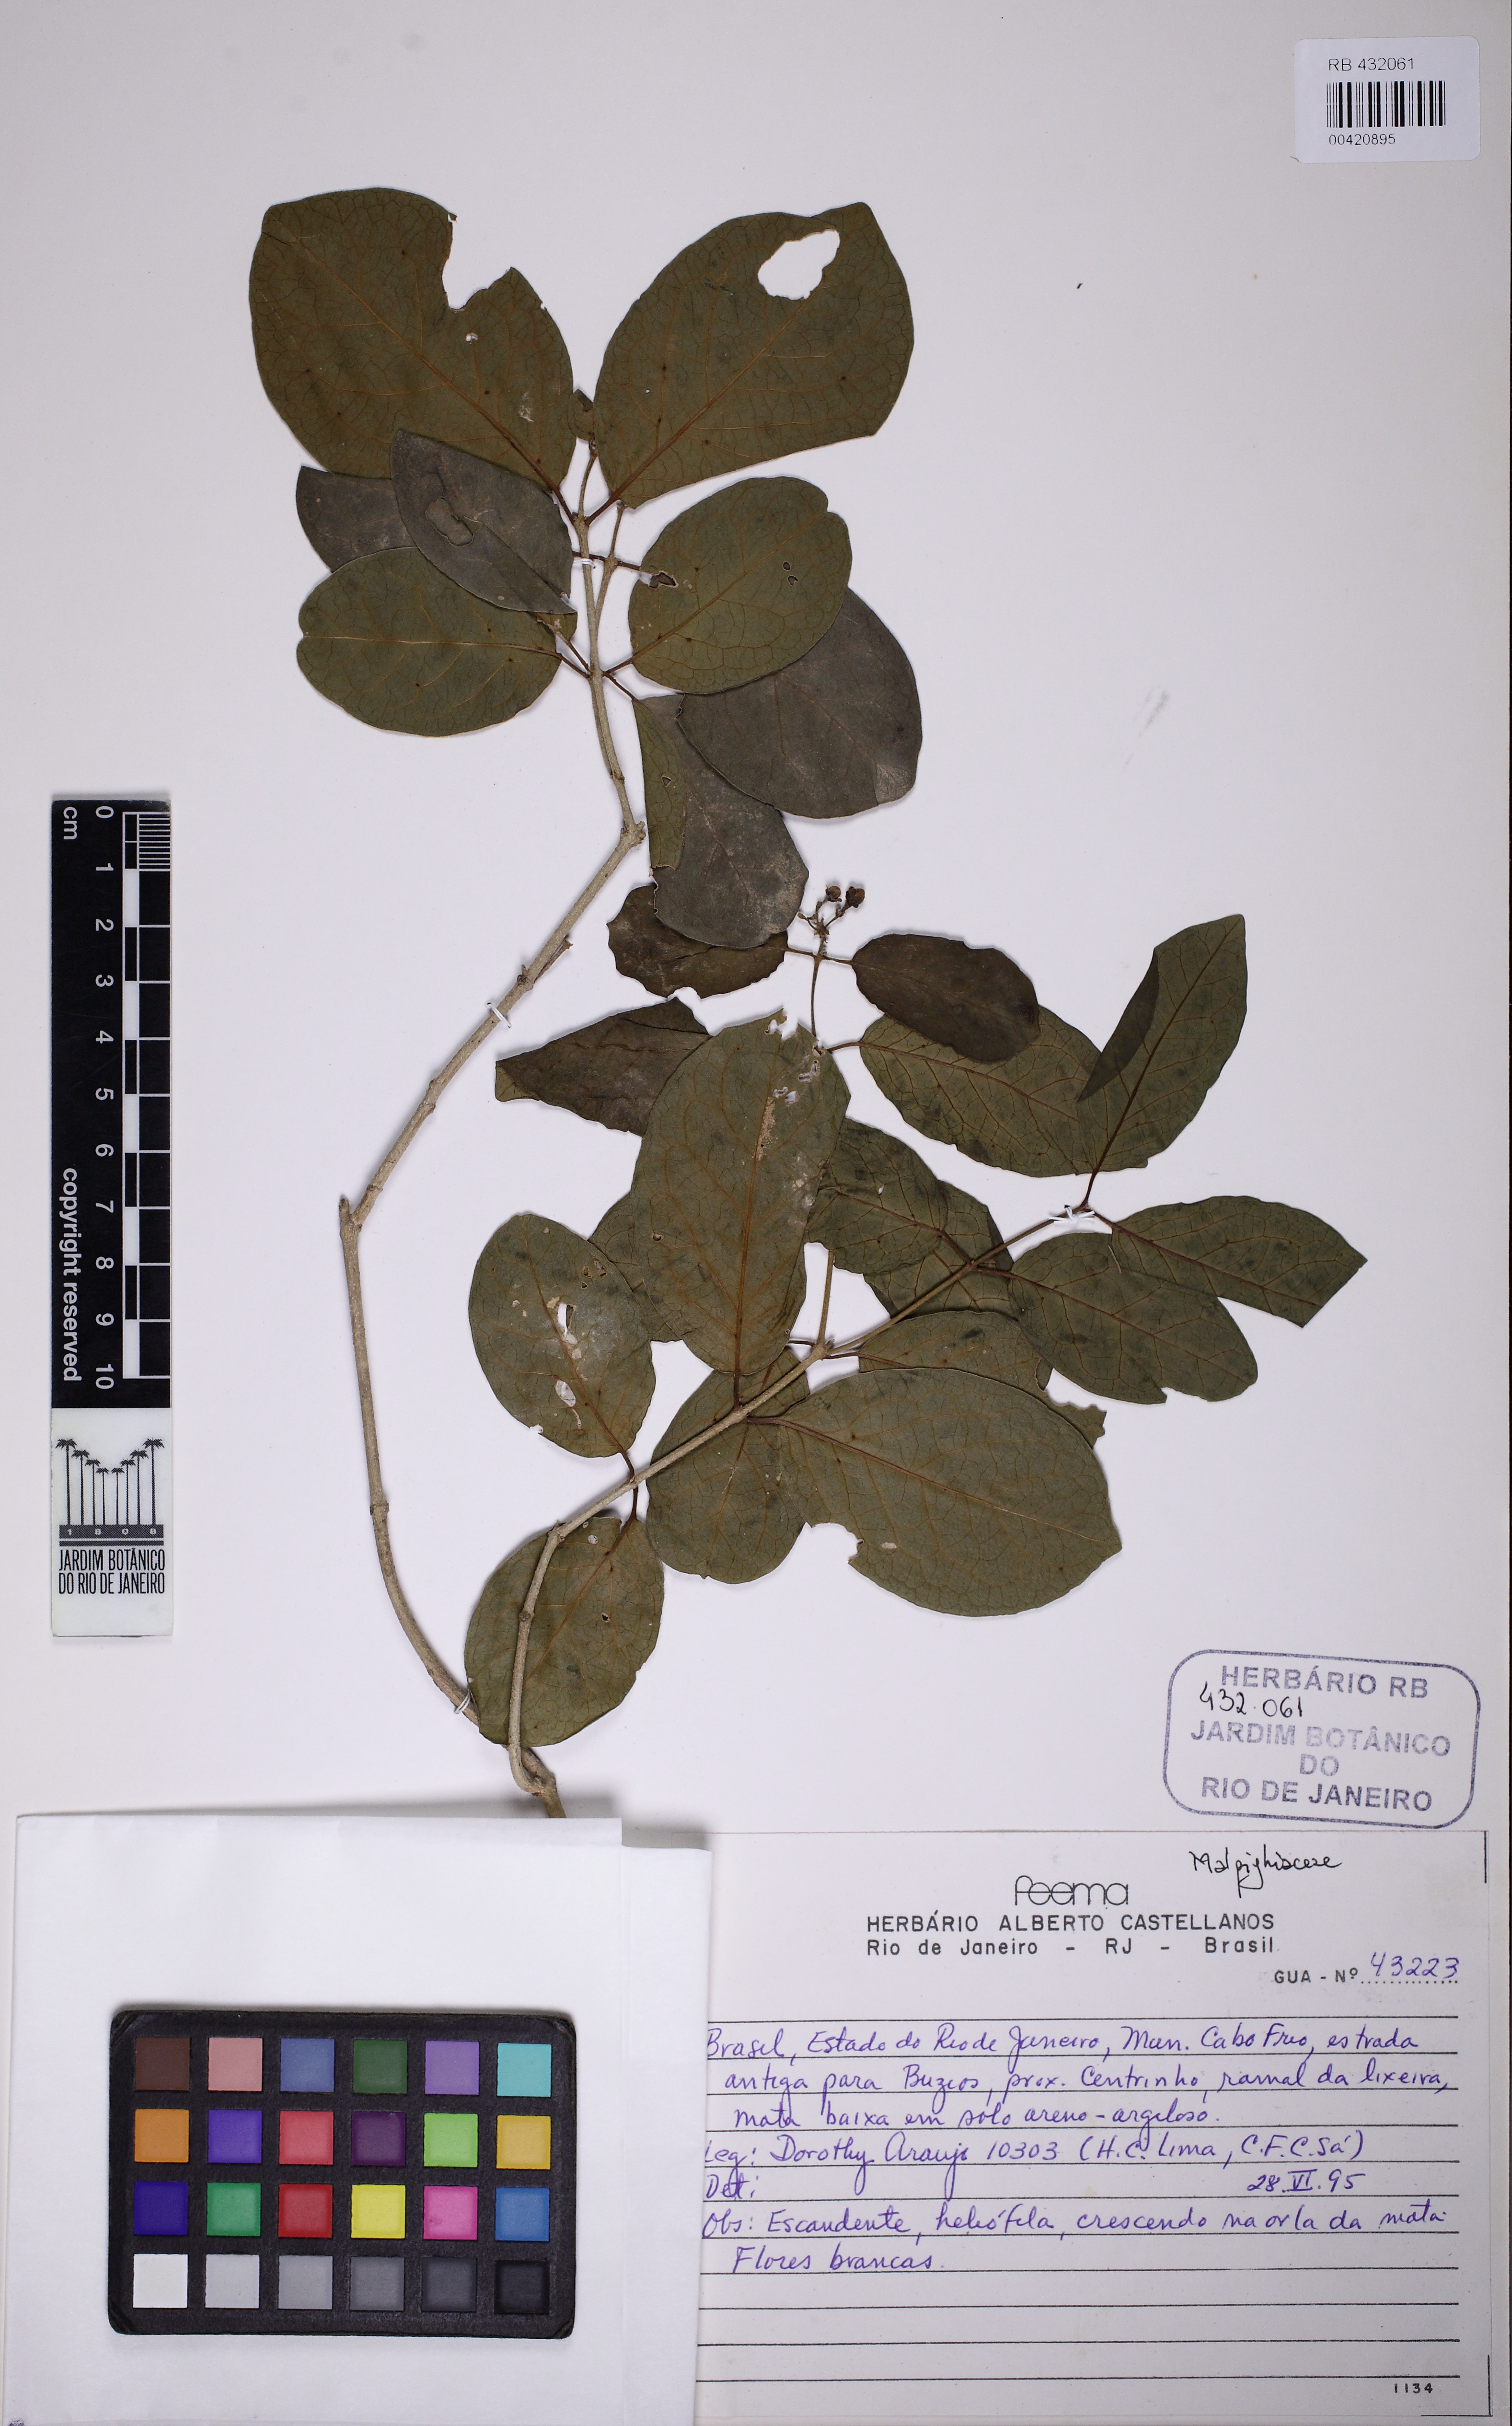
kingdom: Plantae
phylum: Tracheophyta
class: Magnoliopsida
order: Malpighiales
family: Malpighiaceae
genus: Heteropterys
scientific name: Heteropterys bicolor
